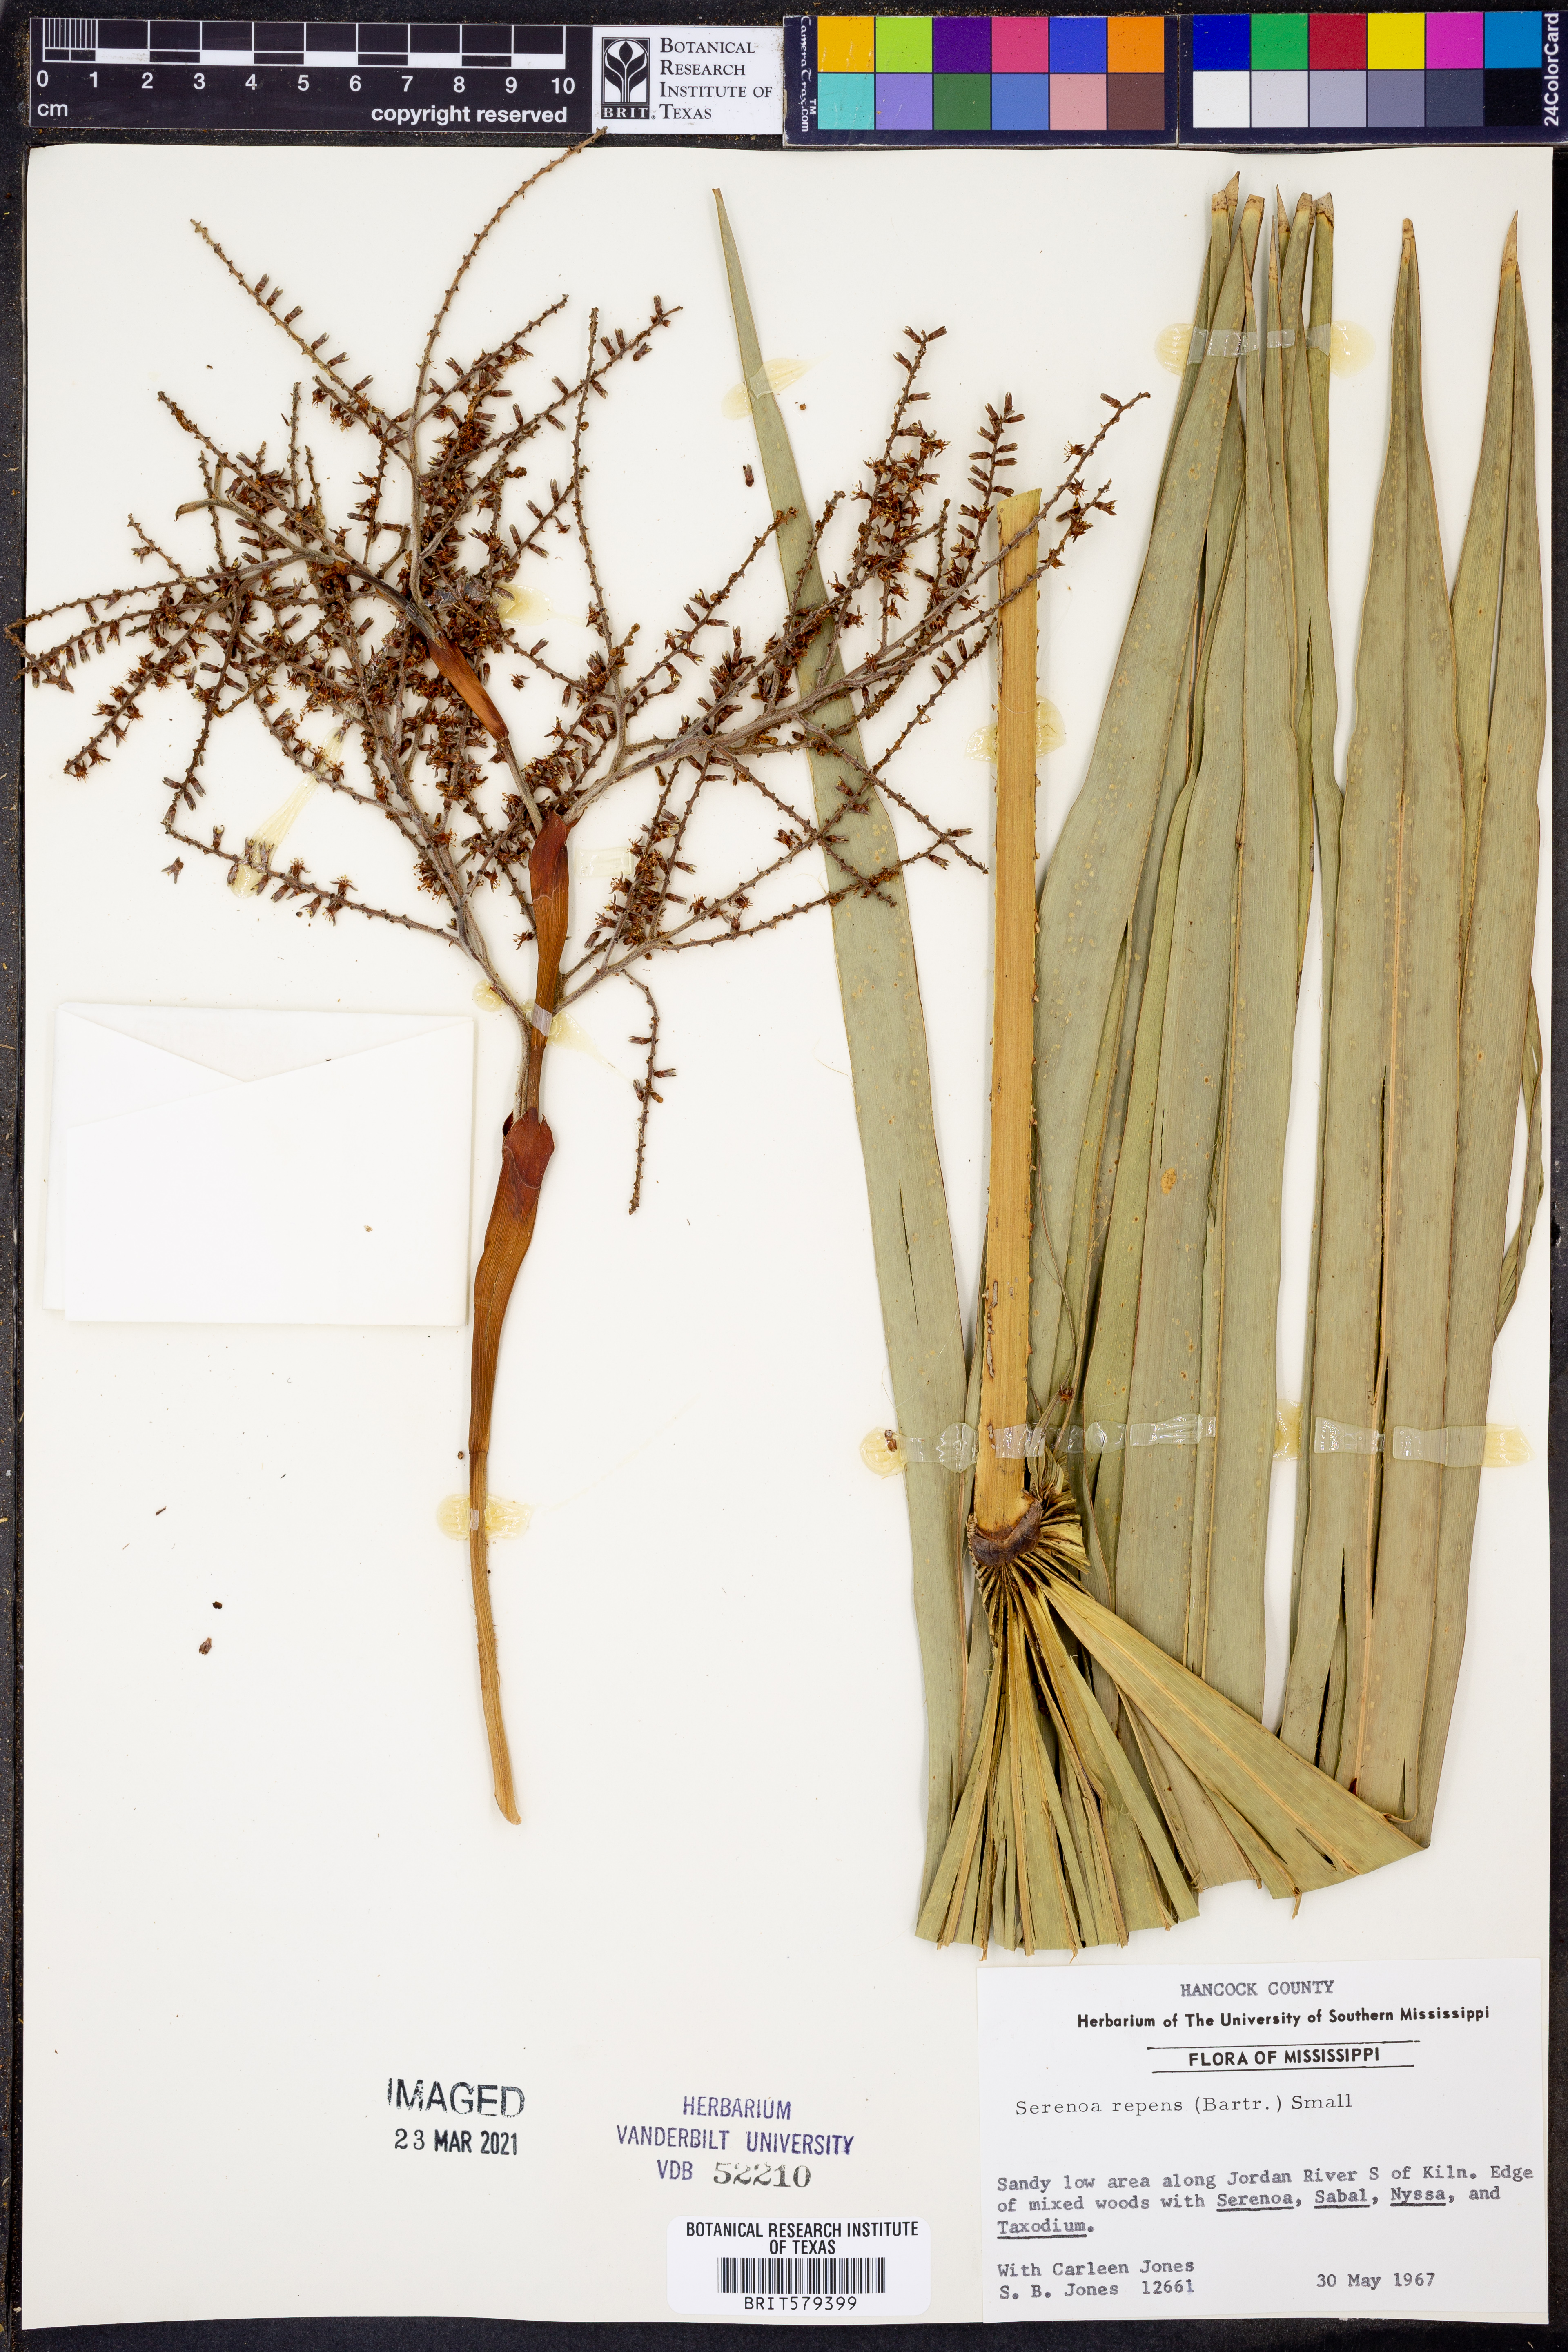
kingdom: Plantae
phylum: Tracheophyta
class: Liliopsida
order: Arecales
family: Arecaceae
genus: Serenoa
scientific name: Serenoa repens
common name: Saw-palmetto
